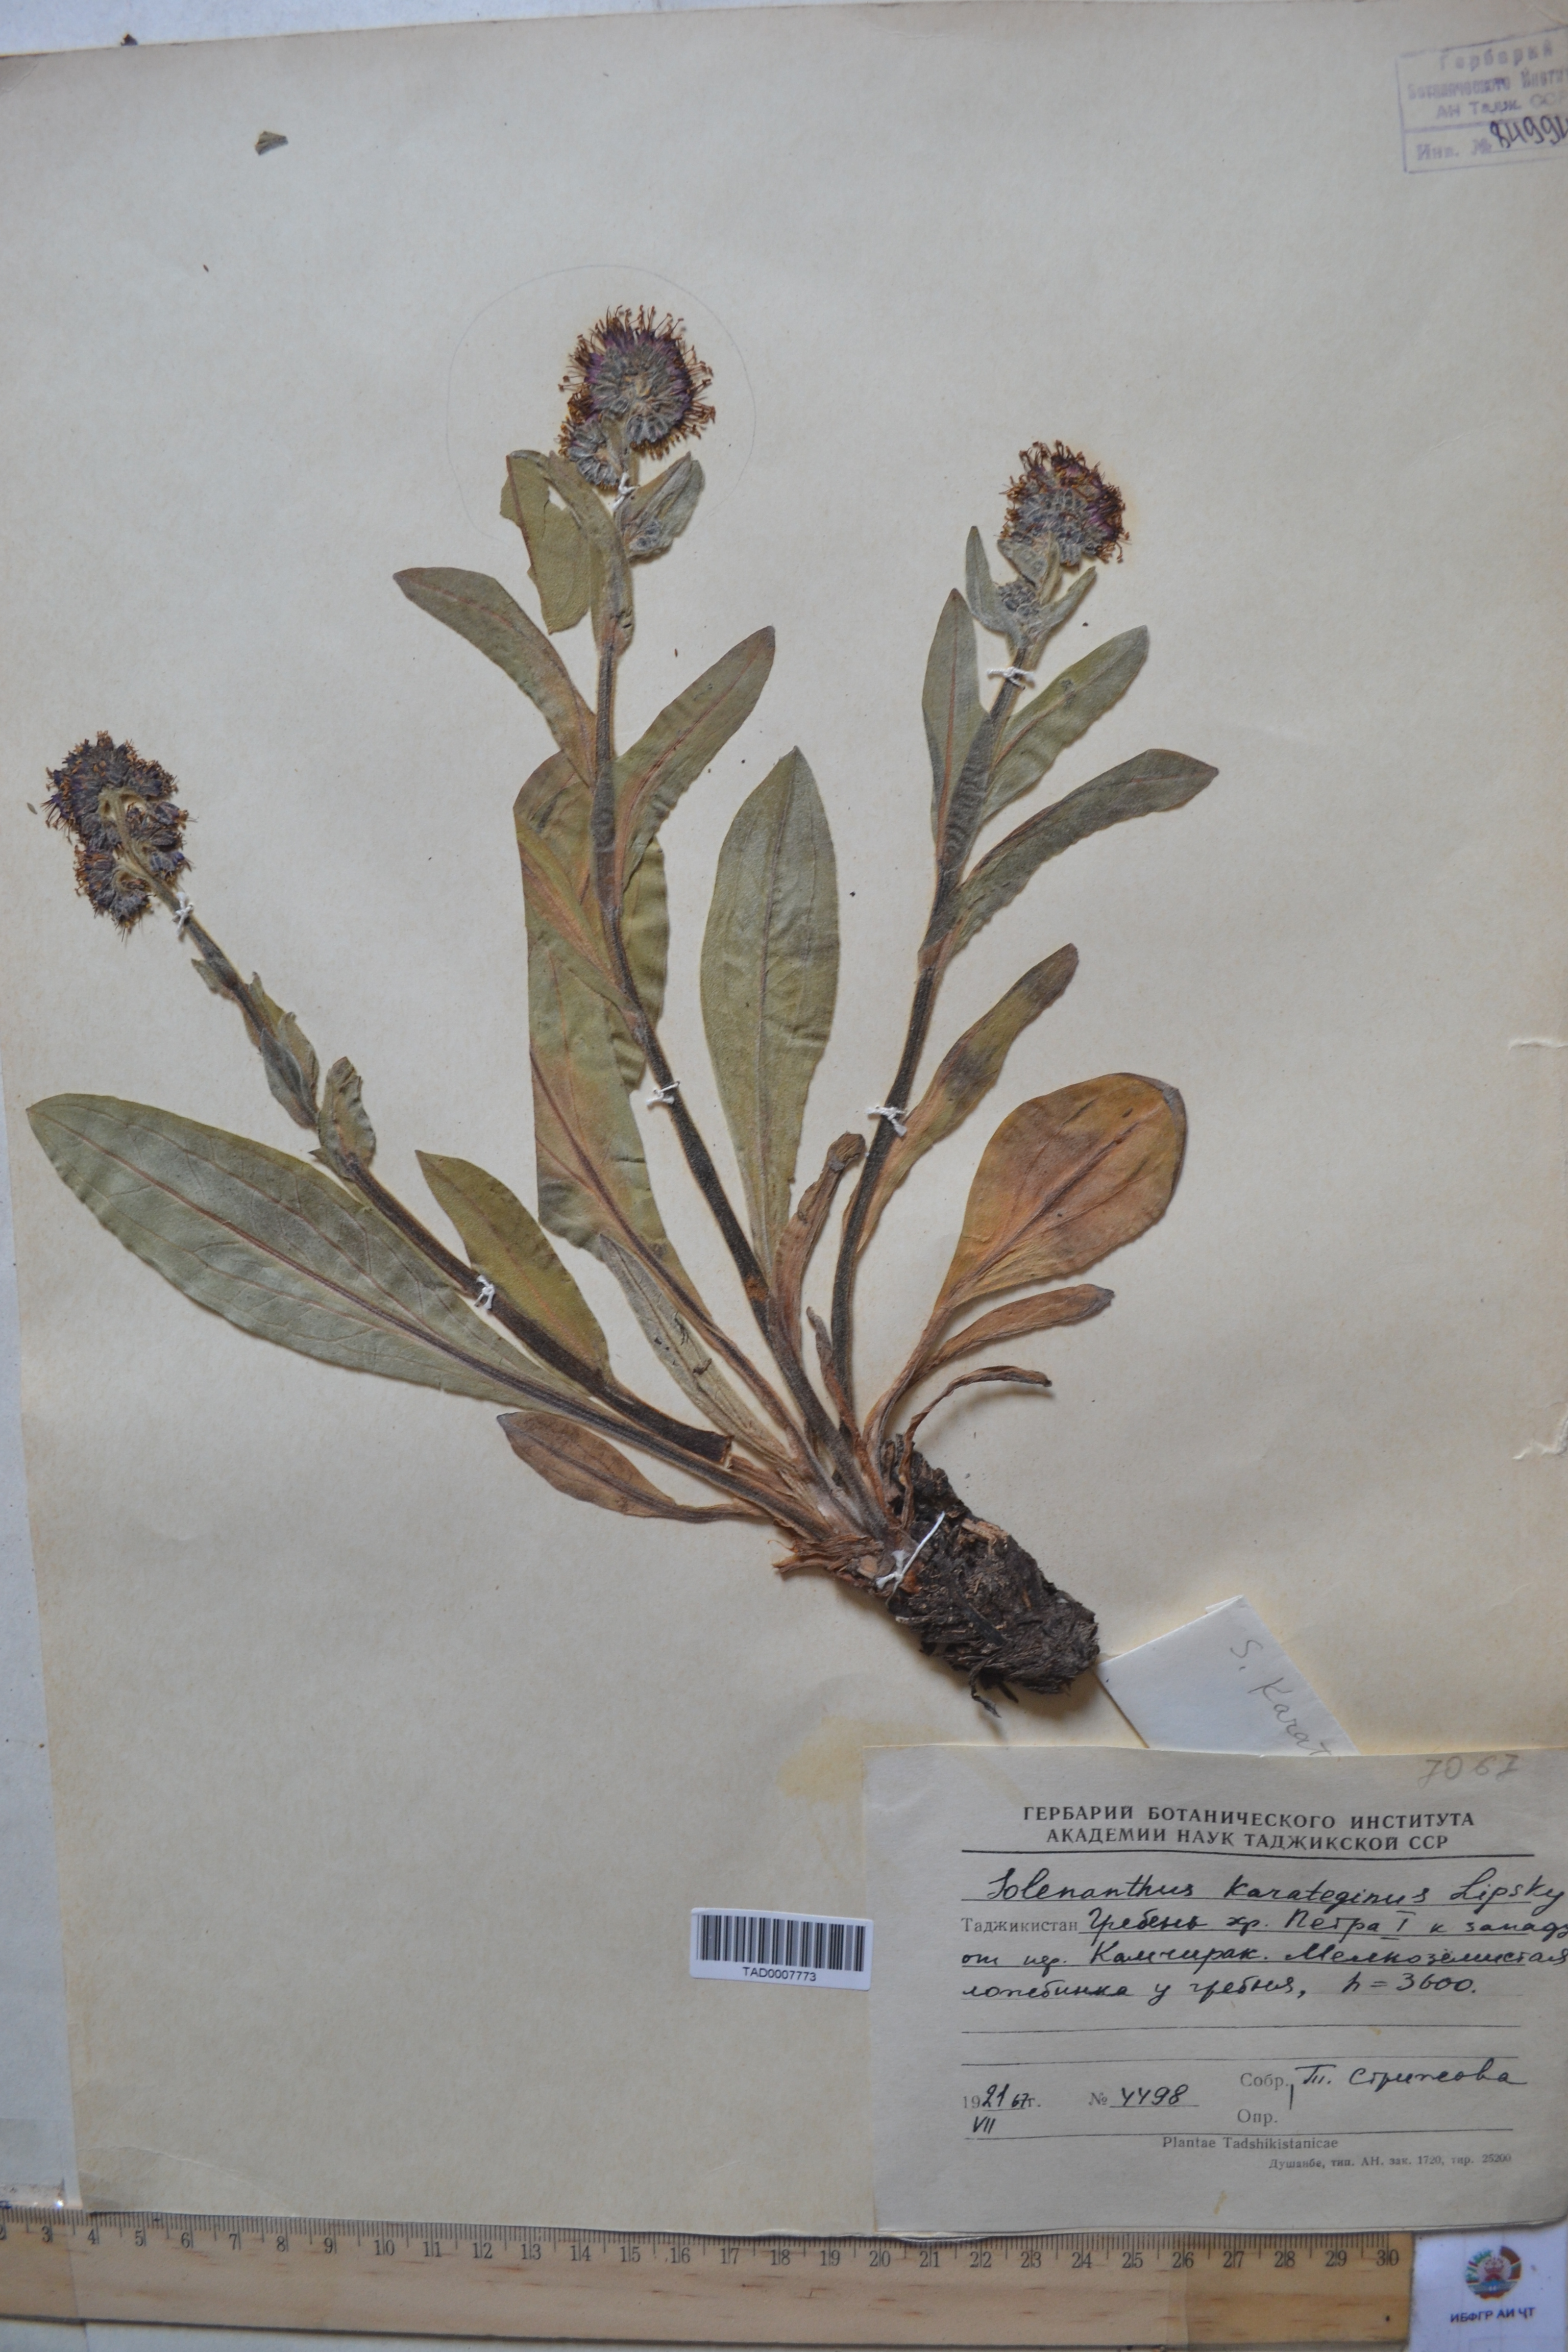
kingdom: Plantae
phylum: Tracheophyta
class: Magnoliopsida
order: Boraginales
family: Boraginaceae
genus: Solenanthus
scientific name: Solenanthus karateginus
